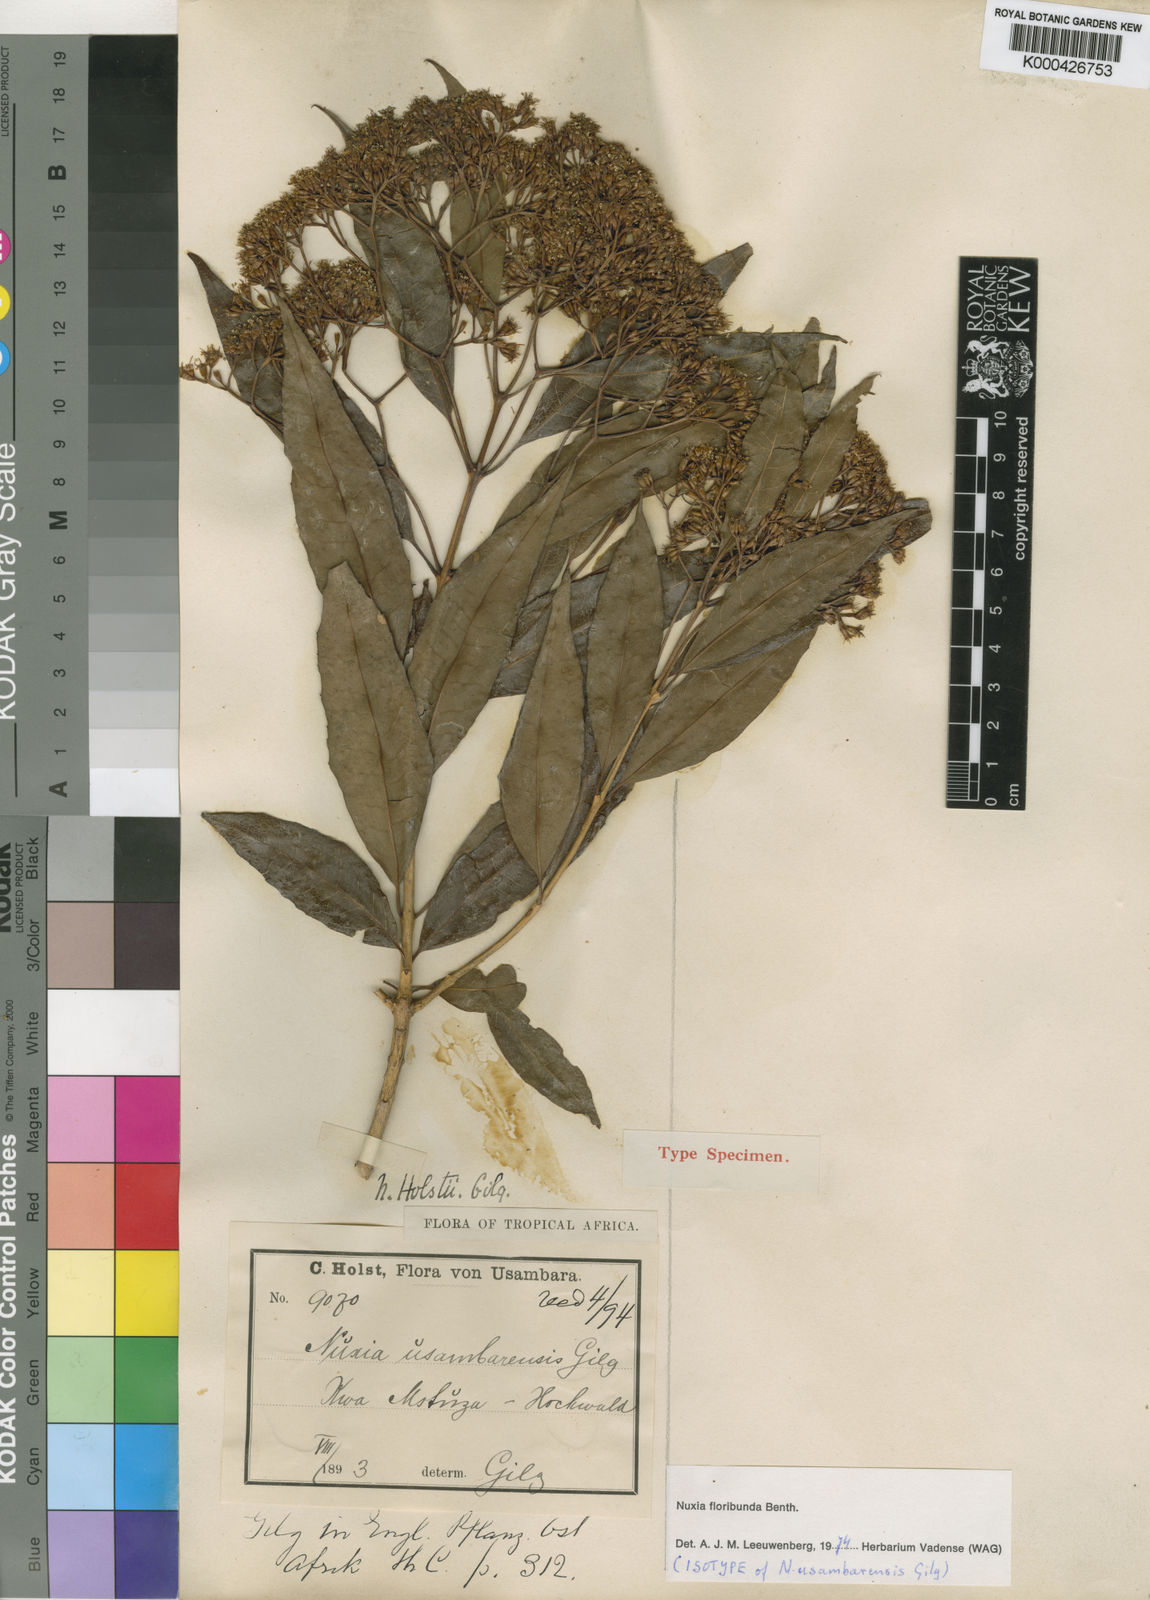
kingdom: Plantae
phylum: Tracheophyta
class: Magnoliopsida
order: Lamiales
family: Stilbaceae
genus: Nuxia
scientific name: Nuxia floribunda
